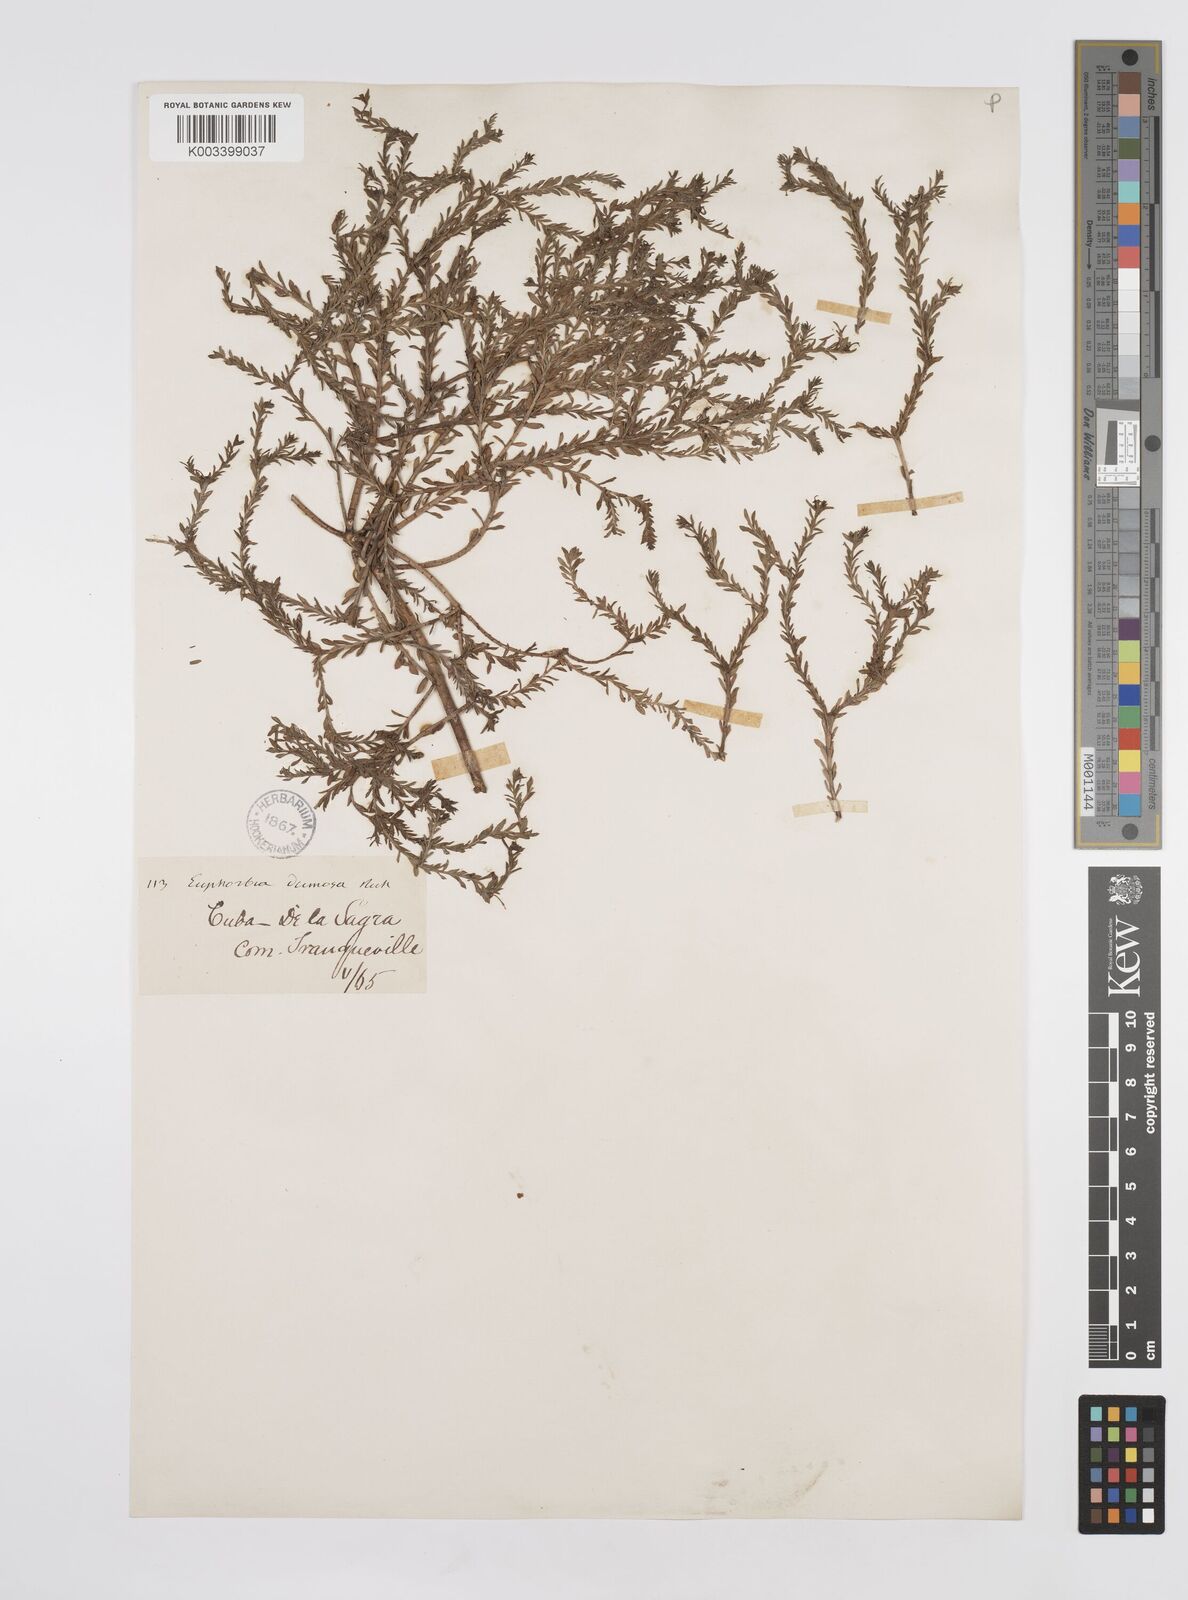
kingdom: Plantae
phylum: Tracheophyta
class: Magnoliopsida
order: Malpighiales
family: Euphorbiaceae
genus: Euphorbia
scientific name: Euphorbia trichotoma
